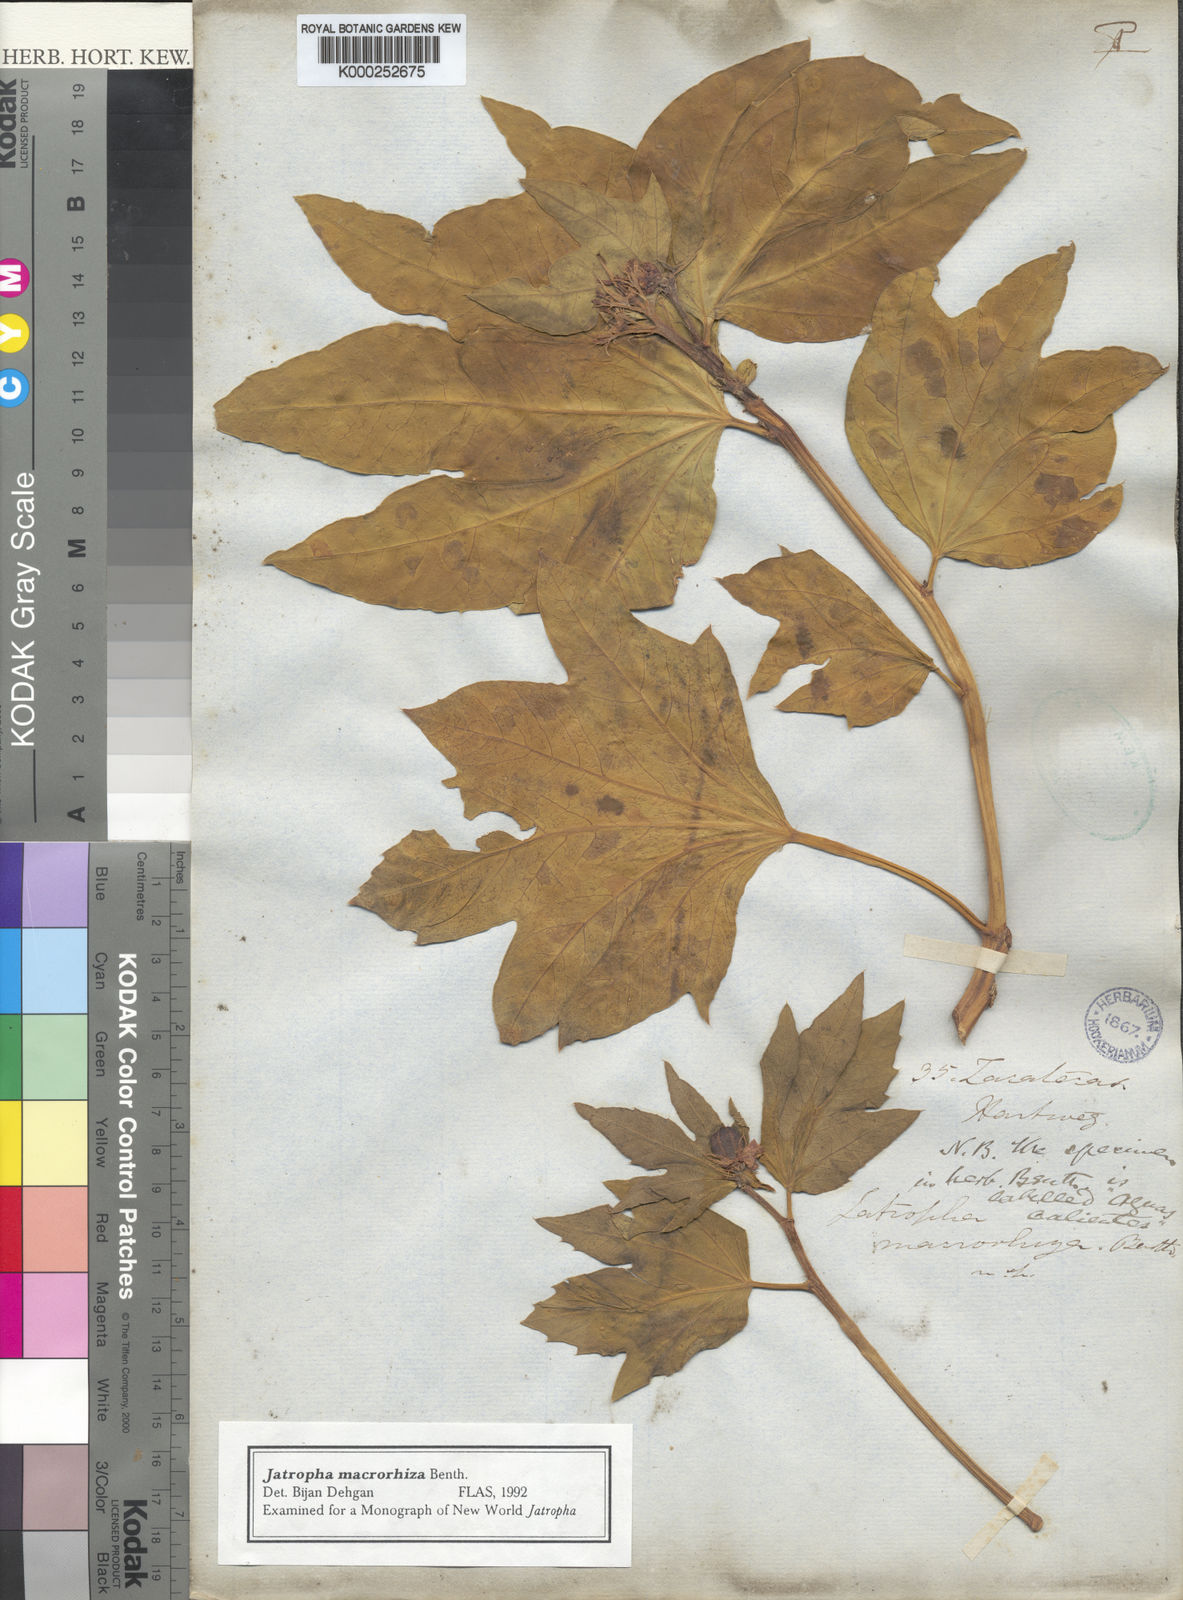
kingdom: Plantae
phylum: Tracheophyta
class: Magnoliopsida
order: Malpighiales
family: Euphorbiaceae
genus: Jatropha
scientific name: Jatropha macrorhiza
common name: Ragged nettlespurge
